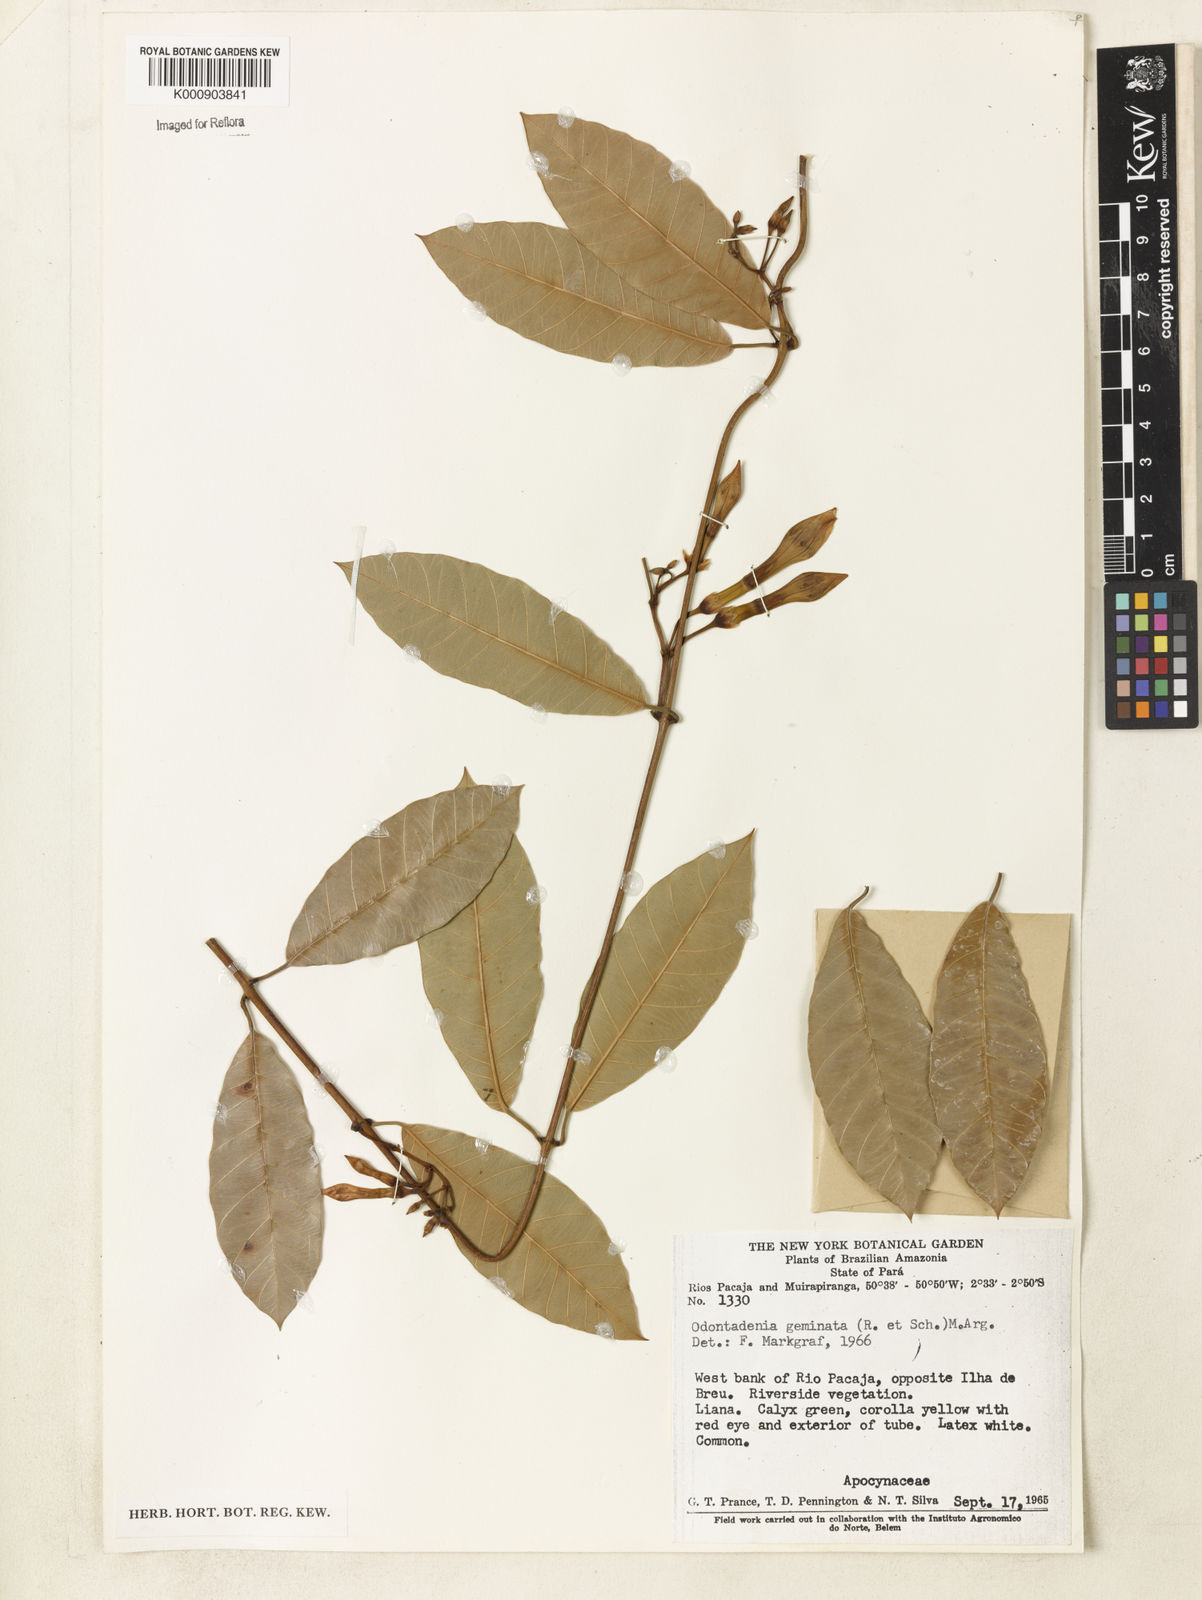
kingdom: Plantae
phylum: Tracheophyta
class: Magnoliopsida
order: Gentianales
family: Apocynaceae
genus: Odontadenia
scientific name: Odontadenia
